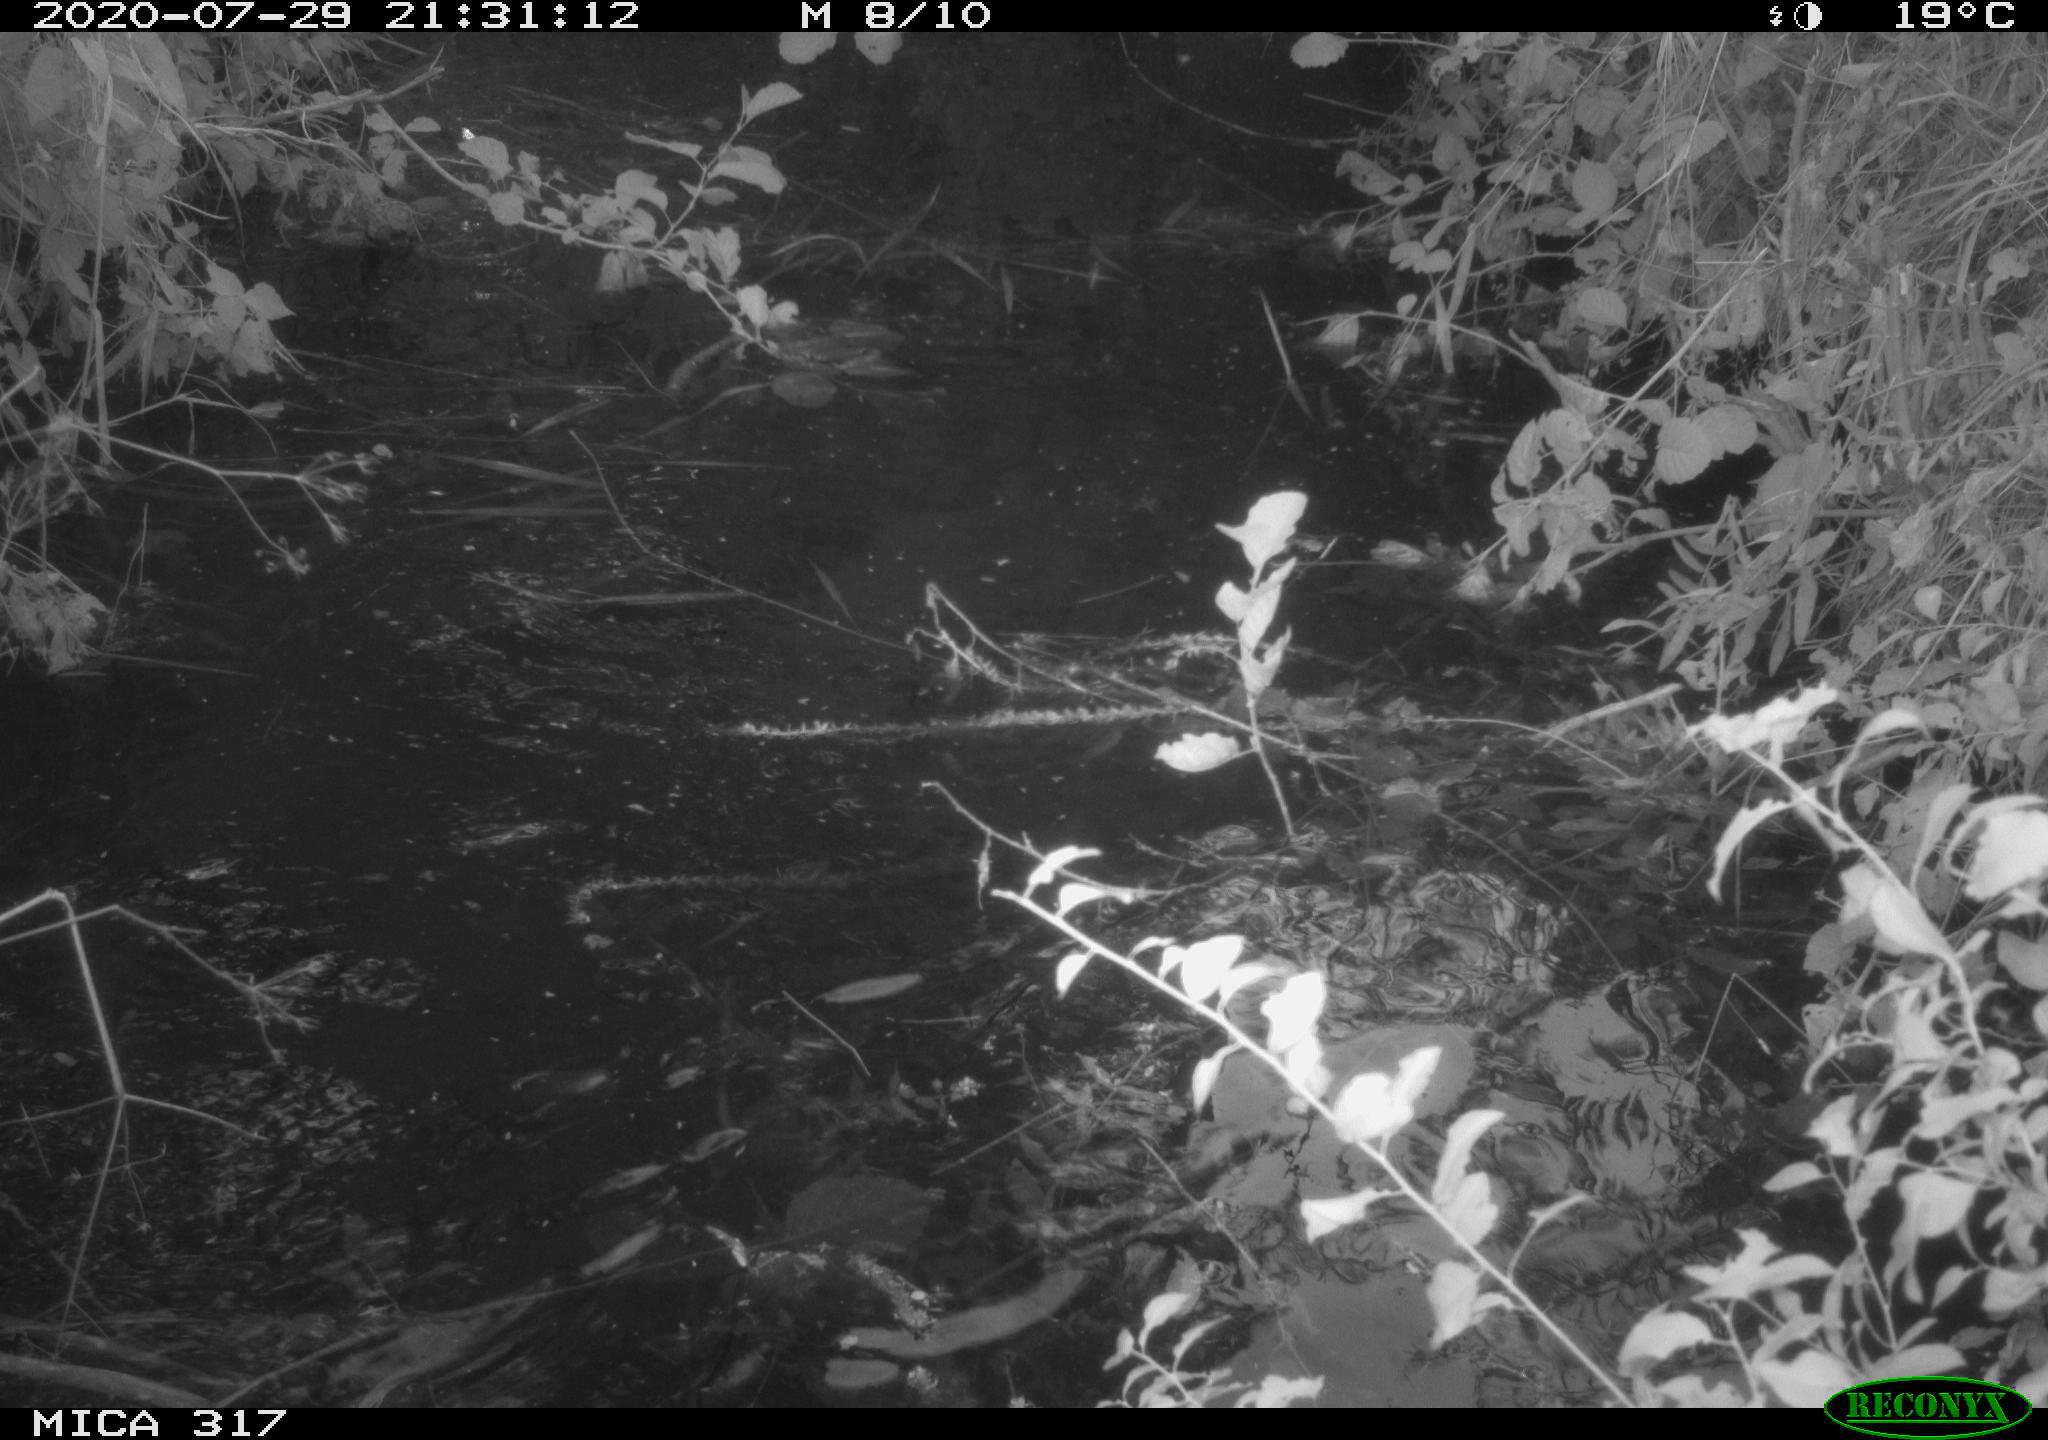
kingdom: Animalia
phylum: Chordata
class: Aves
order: Anseriformes
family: Anatidae
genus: Anas
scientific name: Anas platyrhynchos
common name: Mallard
